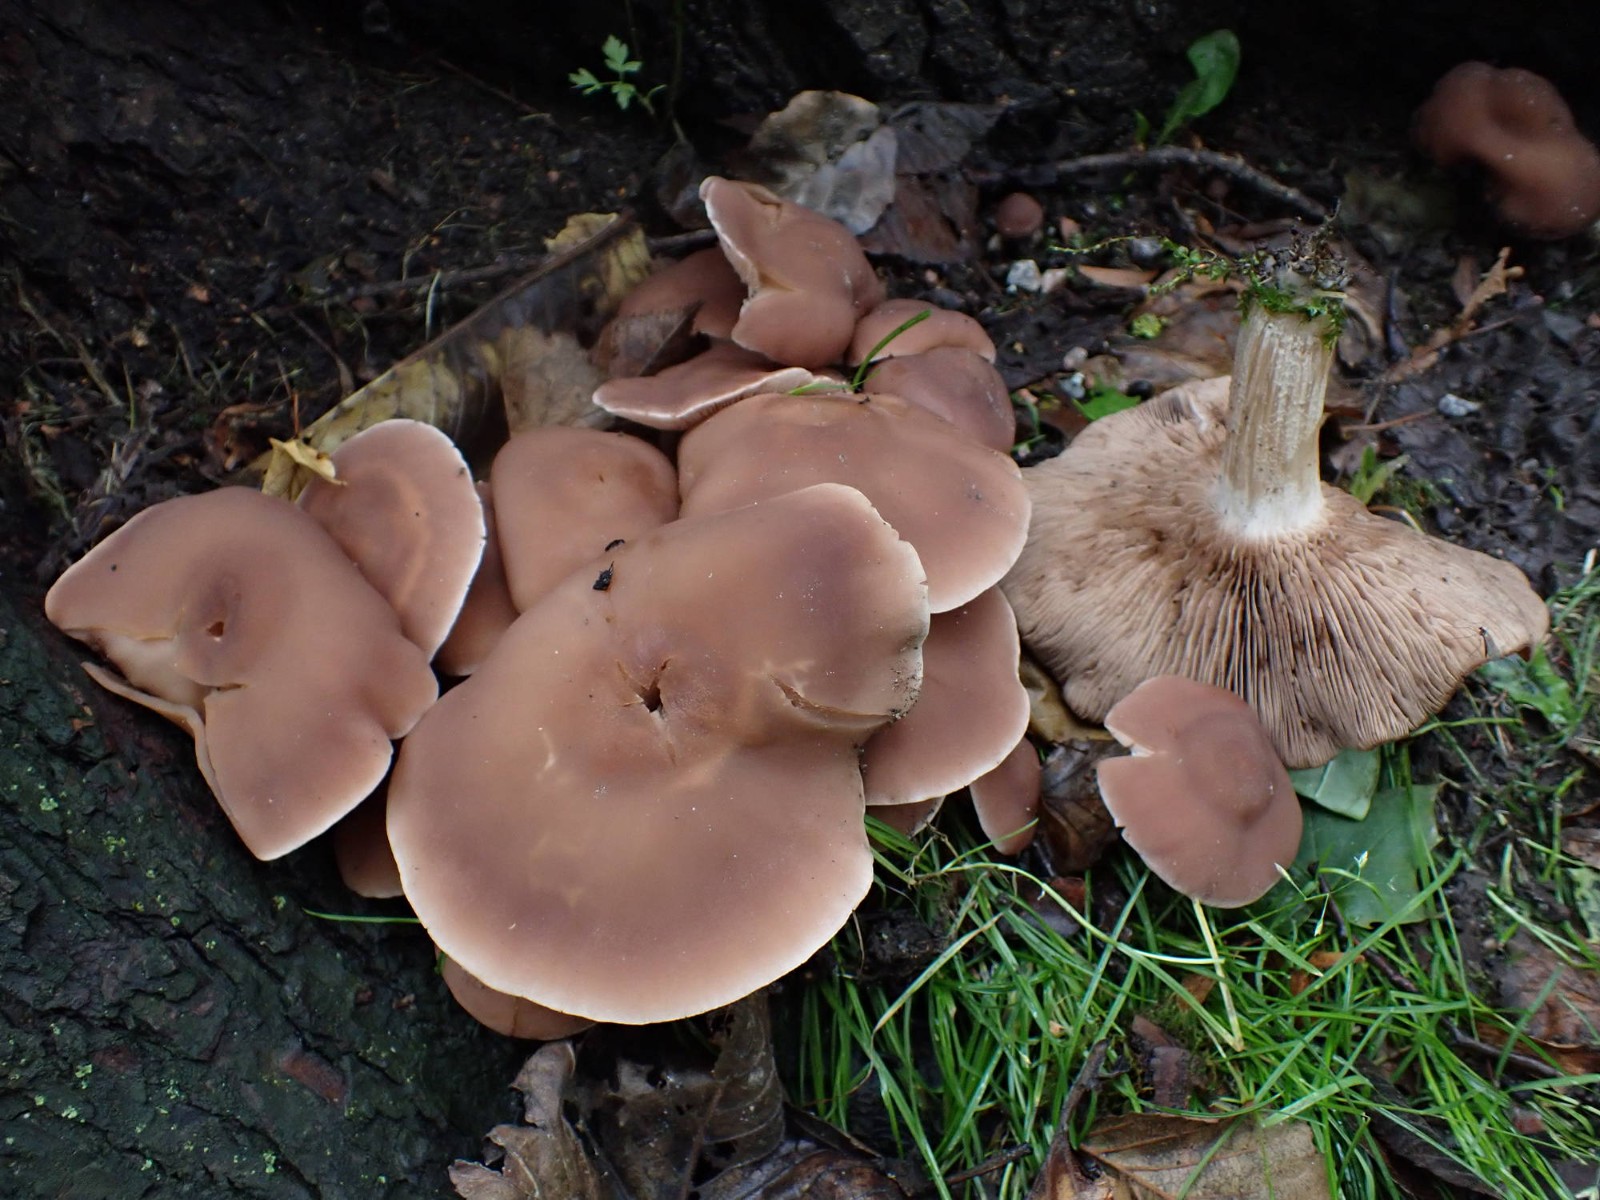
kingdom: Fungi
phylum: Basidiomycota
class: Agaricomycetes
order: Agaricales
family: Psathyrellaceae
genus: Homophron
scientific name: Homophron spadiceum
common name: daddelbrun mørkhat
